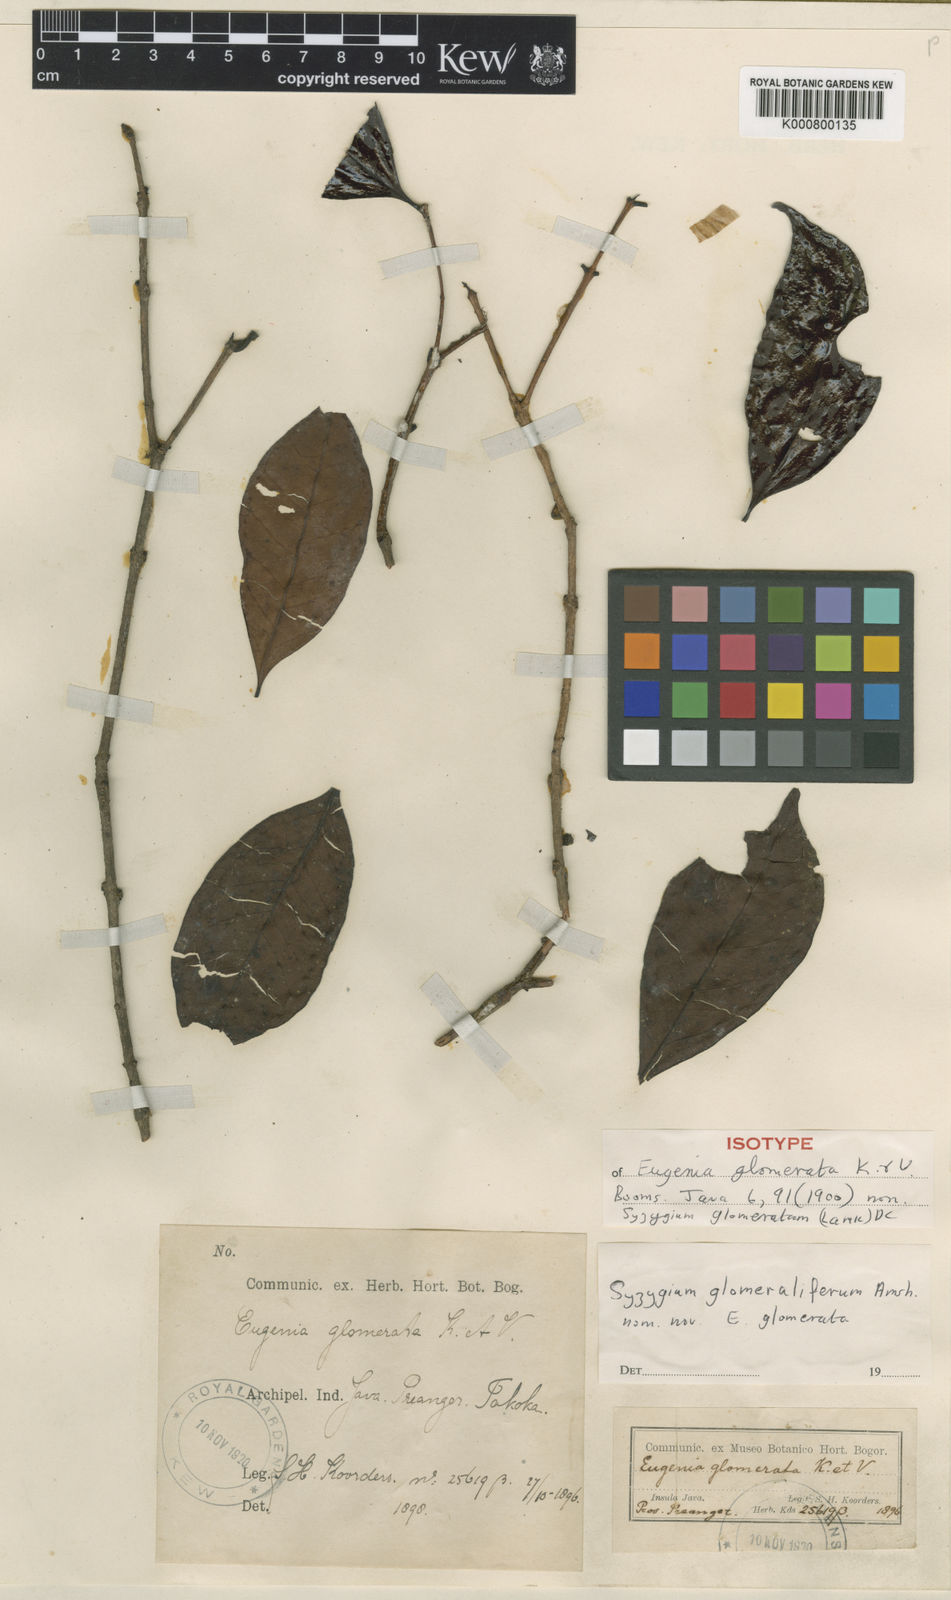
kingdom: Plantae
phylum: Tracheophyta
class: Magnoliopsida
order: Myrtales
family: Myrtaceae
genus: Syzygium
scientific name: Syzygium glomeratum
